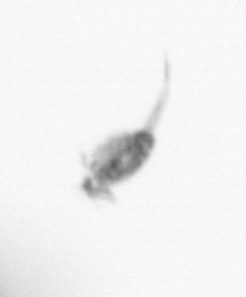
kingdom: Animalia
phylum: Arthropoda
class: Copepoda
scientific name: Copepoda
